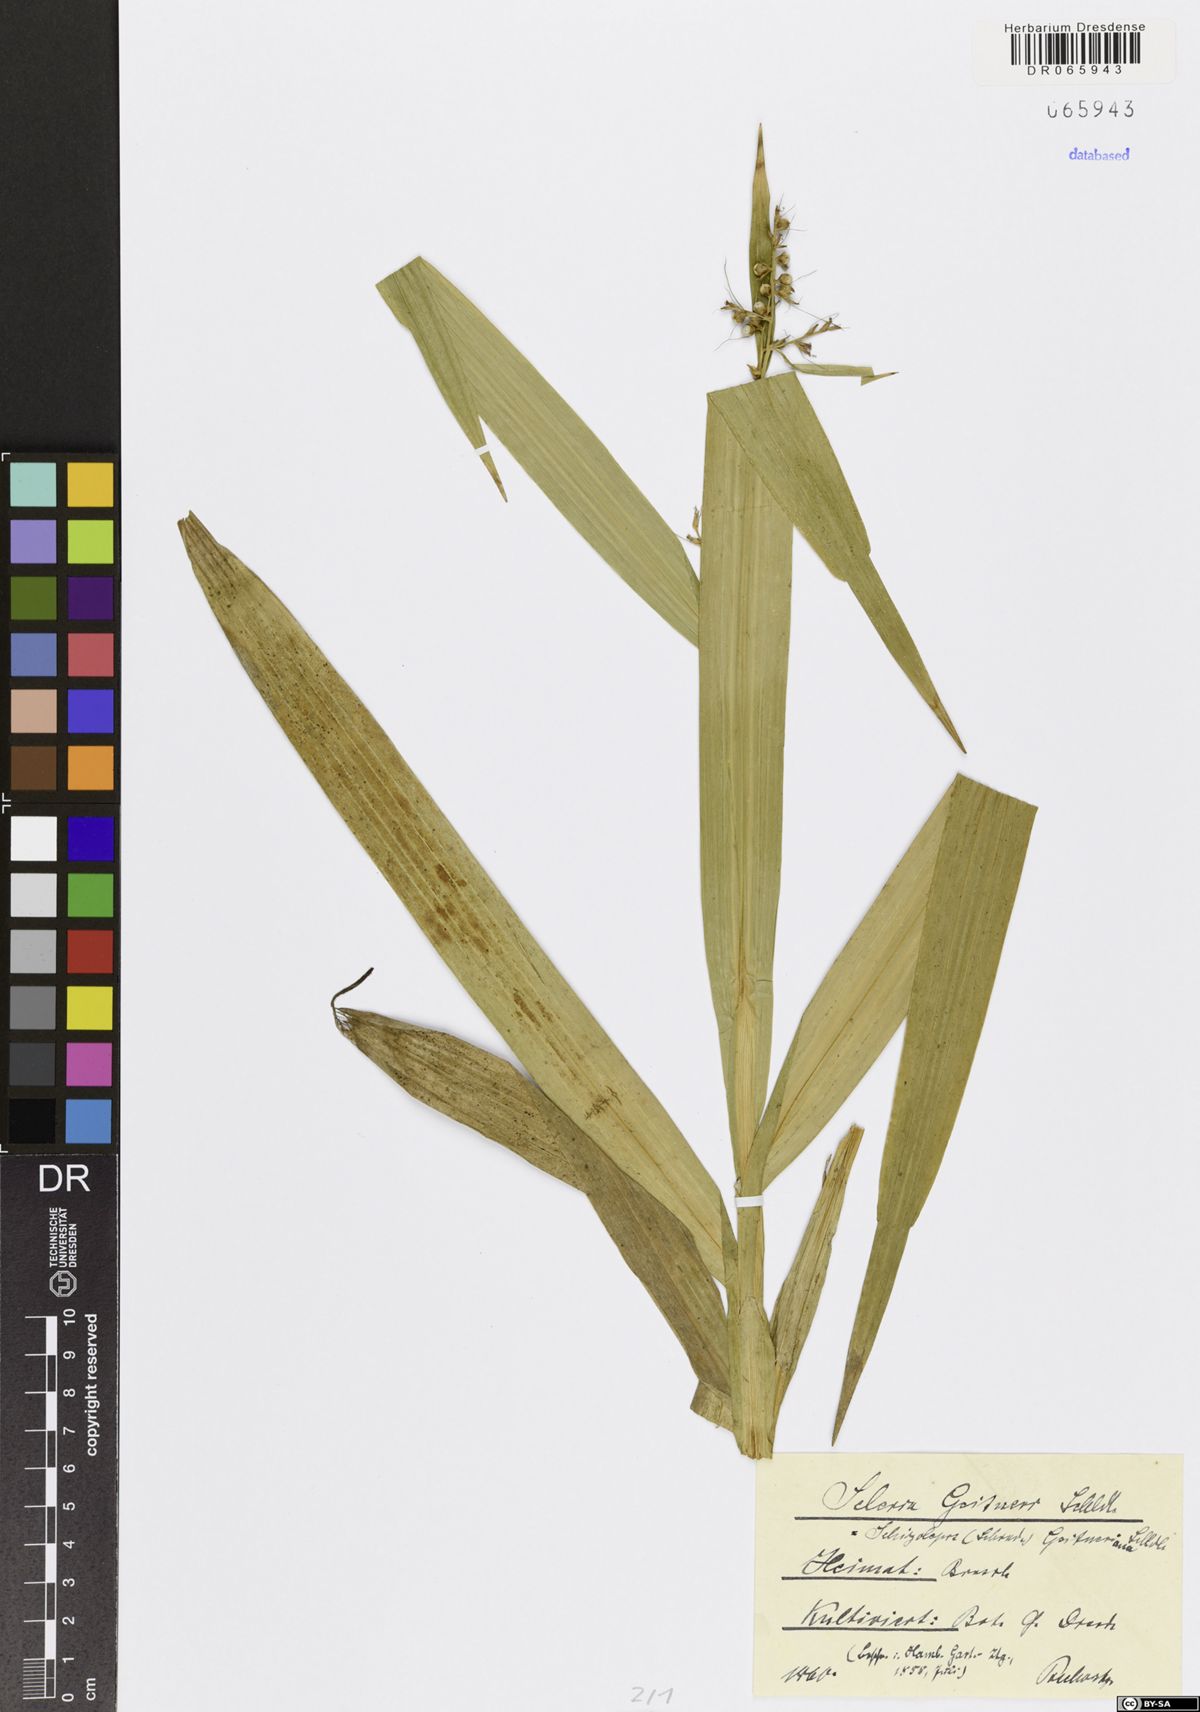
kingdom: Plantae
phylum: Tracheophyta
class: Liliopsida
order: Poales
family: Cyperaceae
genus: Scleria
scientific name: Scleria
